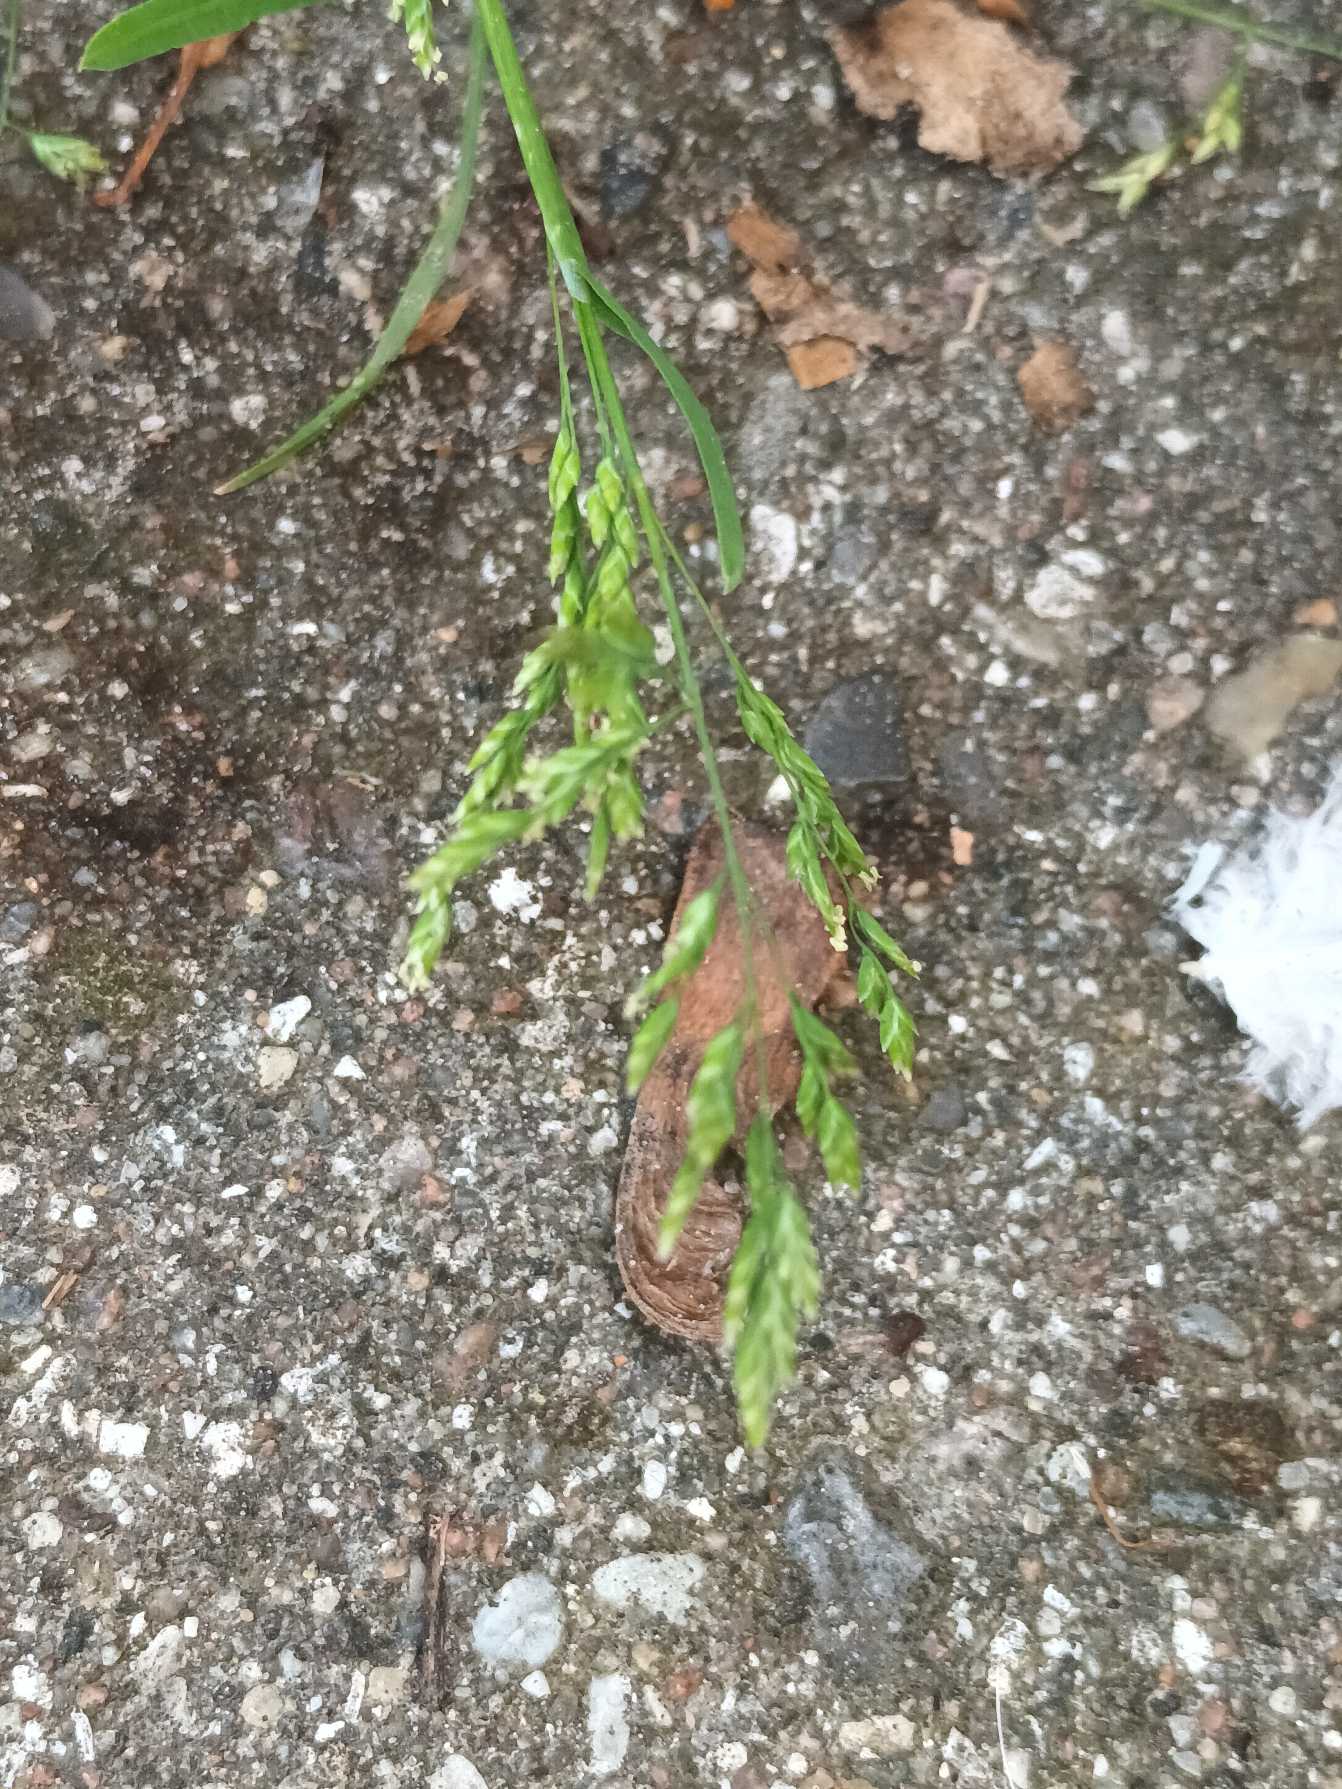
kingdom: Plantae
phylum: Tracheophyta
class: Liliopsida
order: Poales
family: Poaceae
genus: Poa
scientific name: Poa annua
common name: Enårig rapgræs
